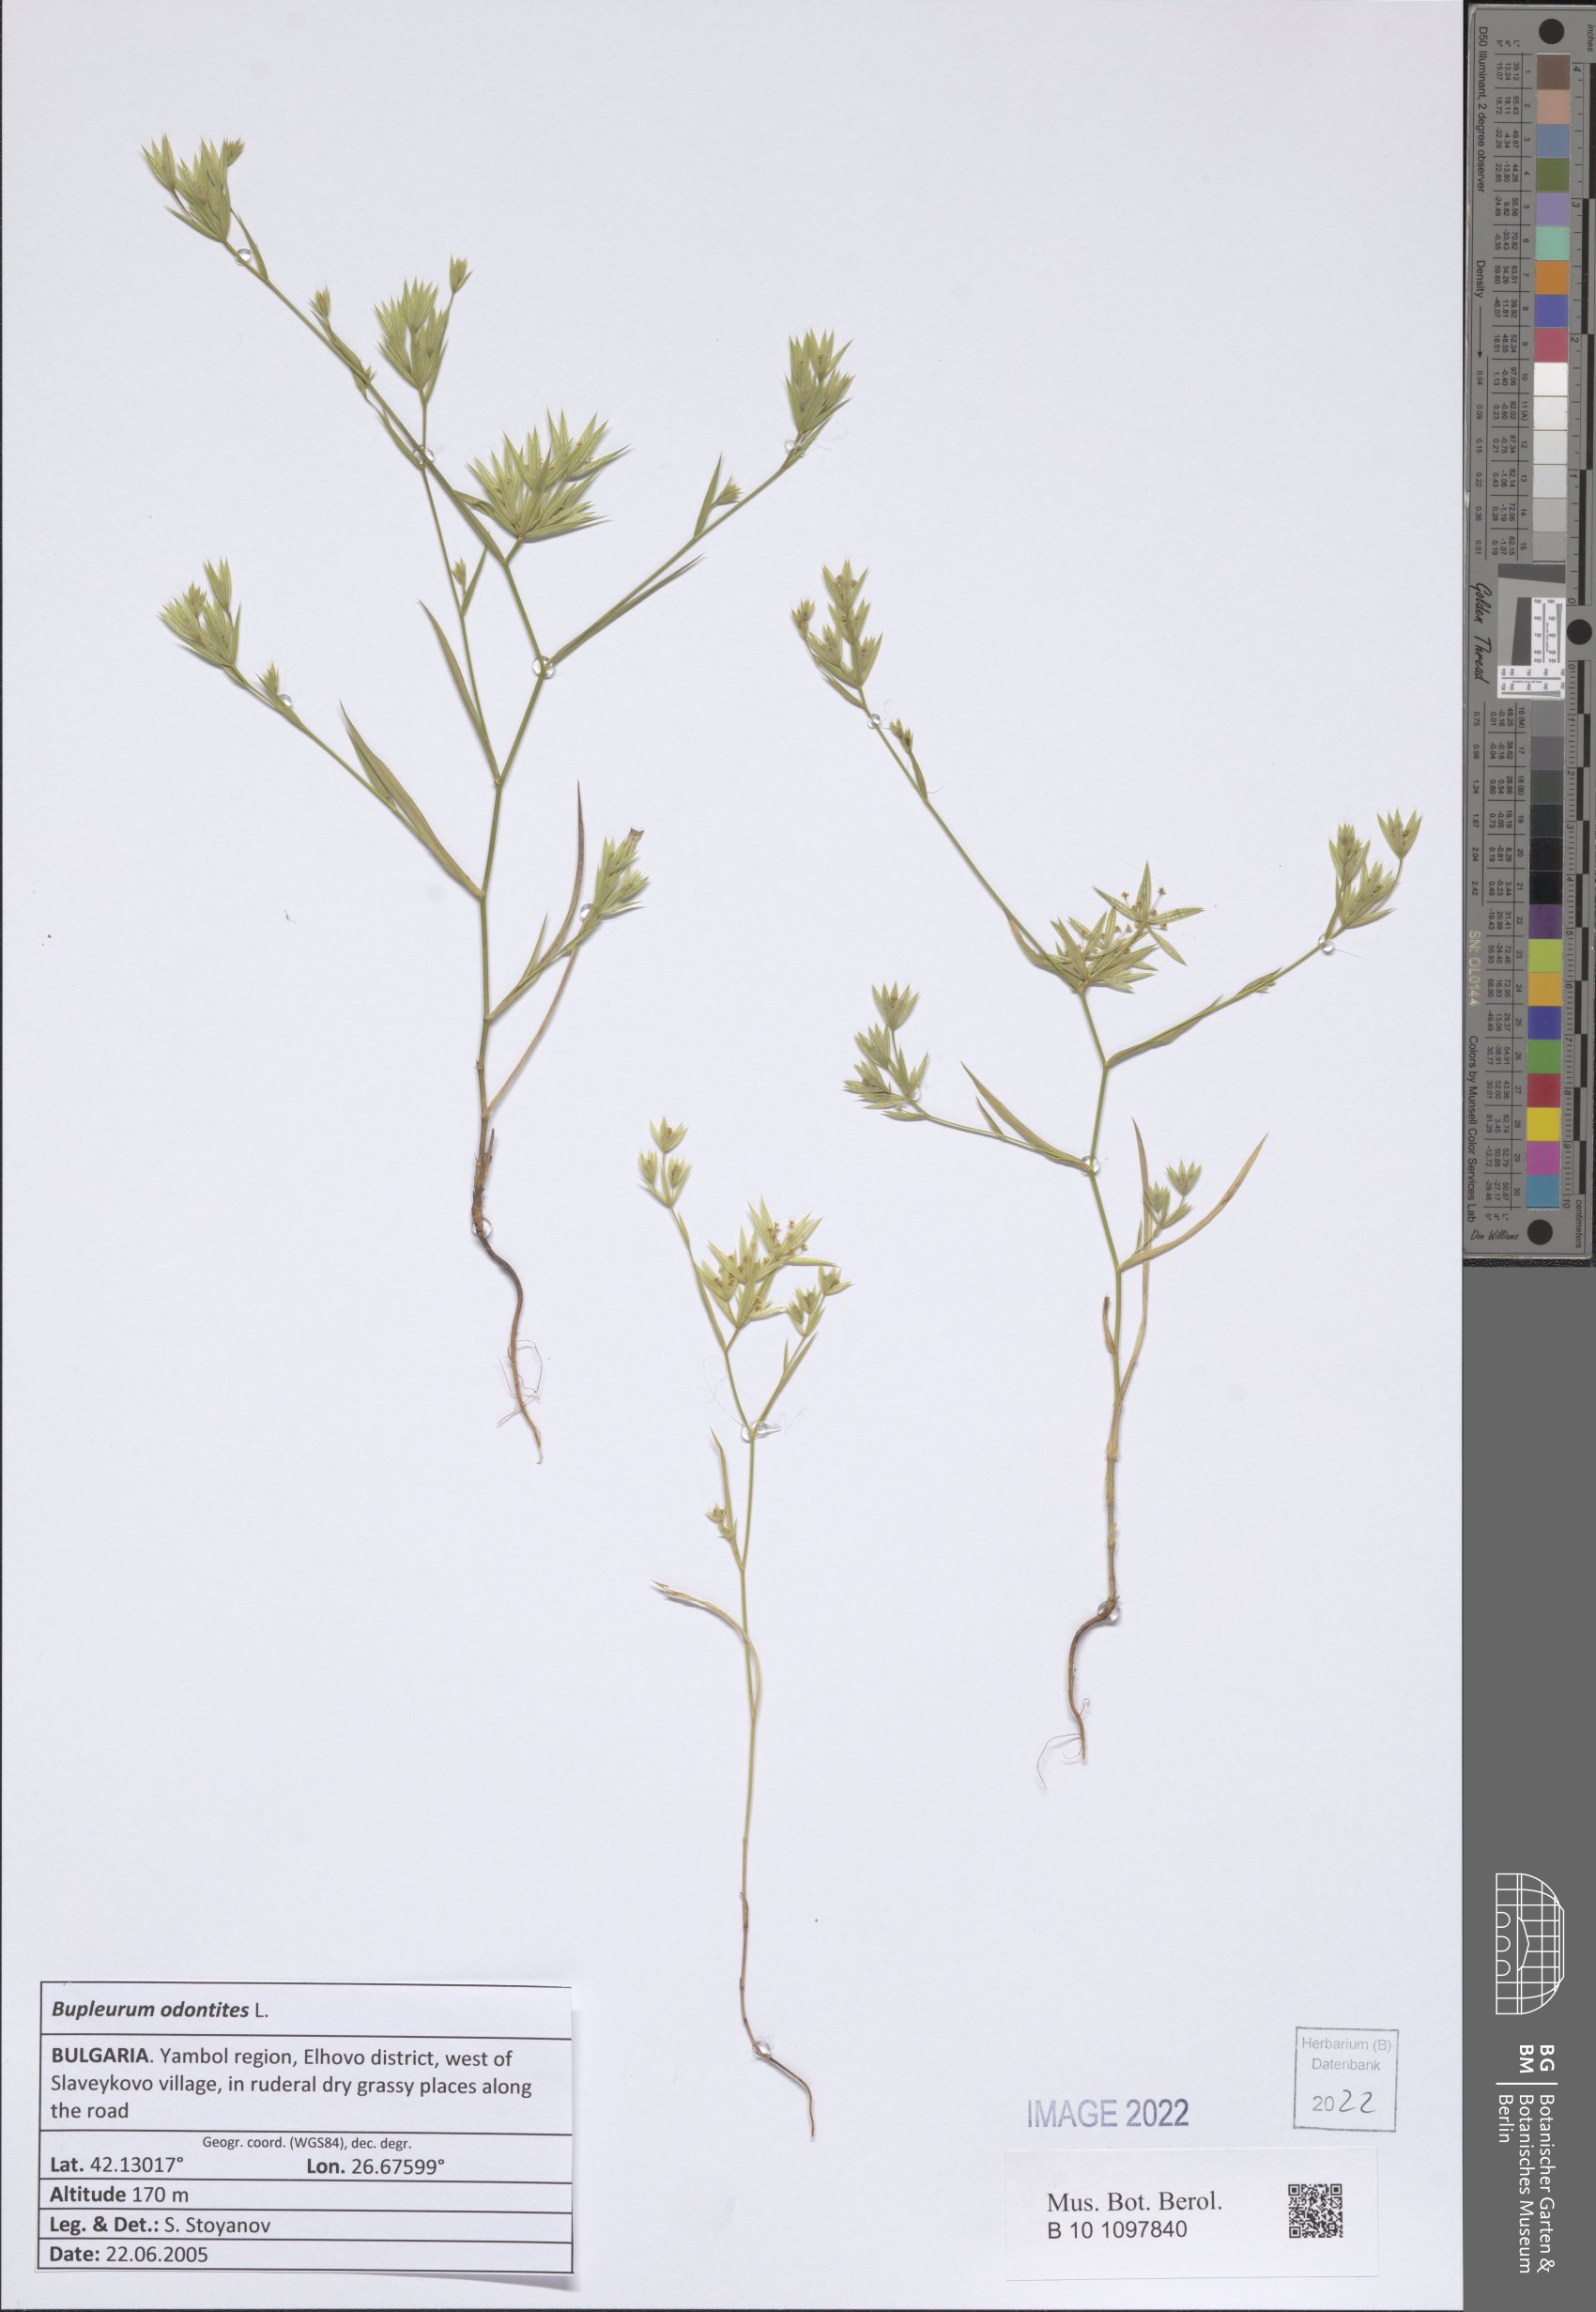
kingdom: Plantae
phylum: Tracheophyta
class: Magnoliopsida
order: Apiales
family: Apiaceae
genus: Bupleurum
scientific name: Bupleurum odontites
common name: Narrowleaf thorow wax
